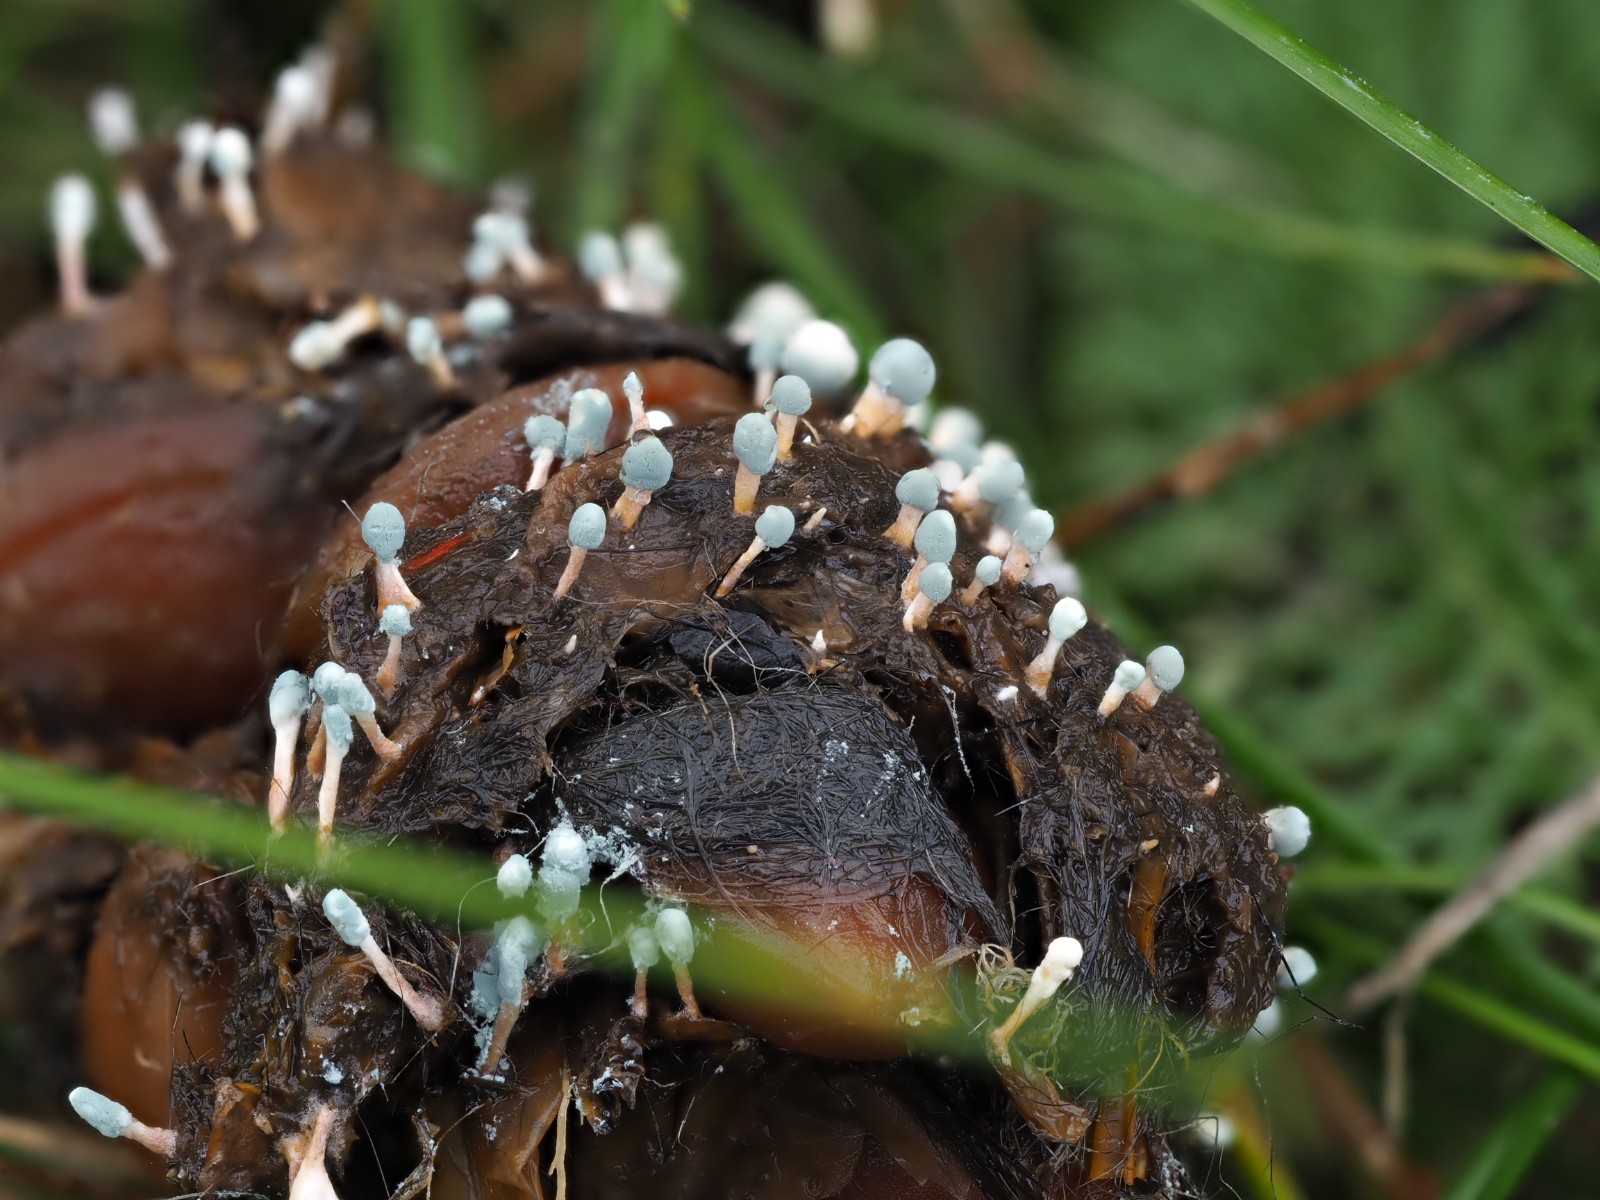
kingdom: Fungi
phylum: Ascomycota
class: Eurotiomycetes
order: Eurotiales
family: Aspergillaceae
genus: Penicillium
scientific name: Penicillium vulpinum
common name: kølle-penselskimmel
